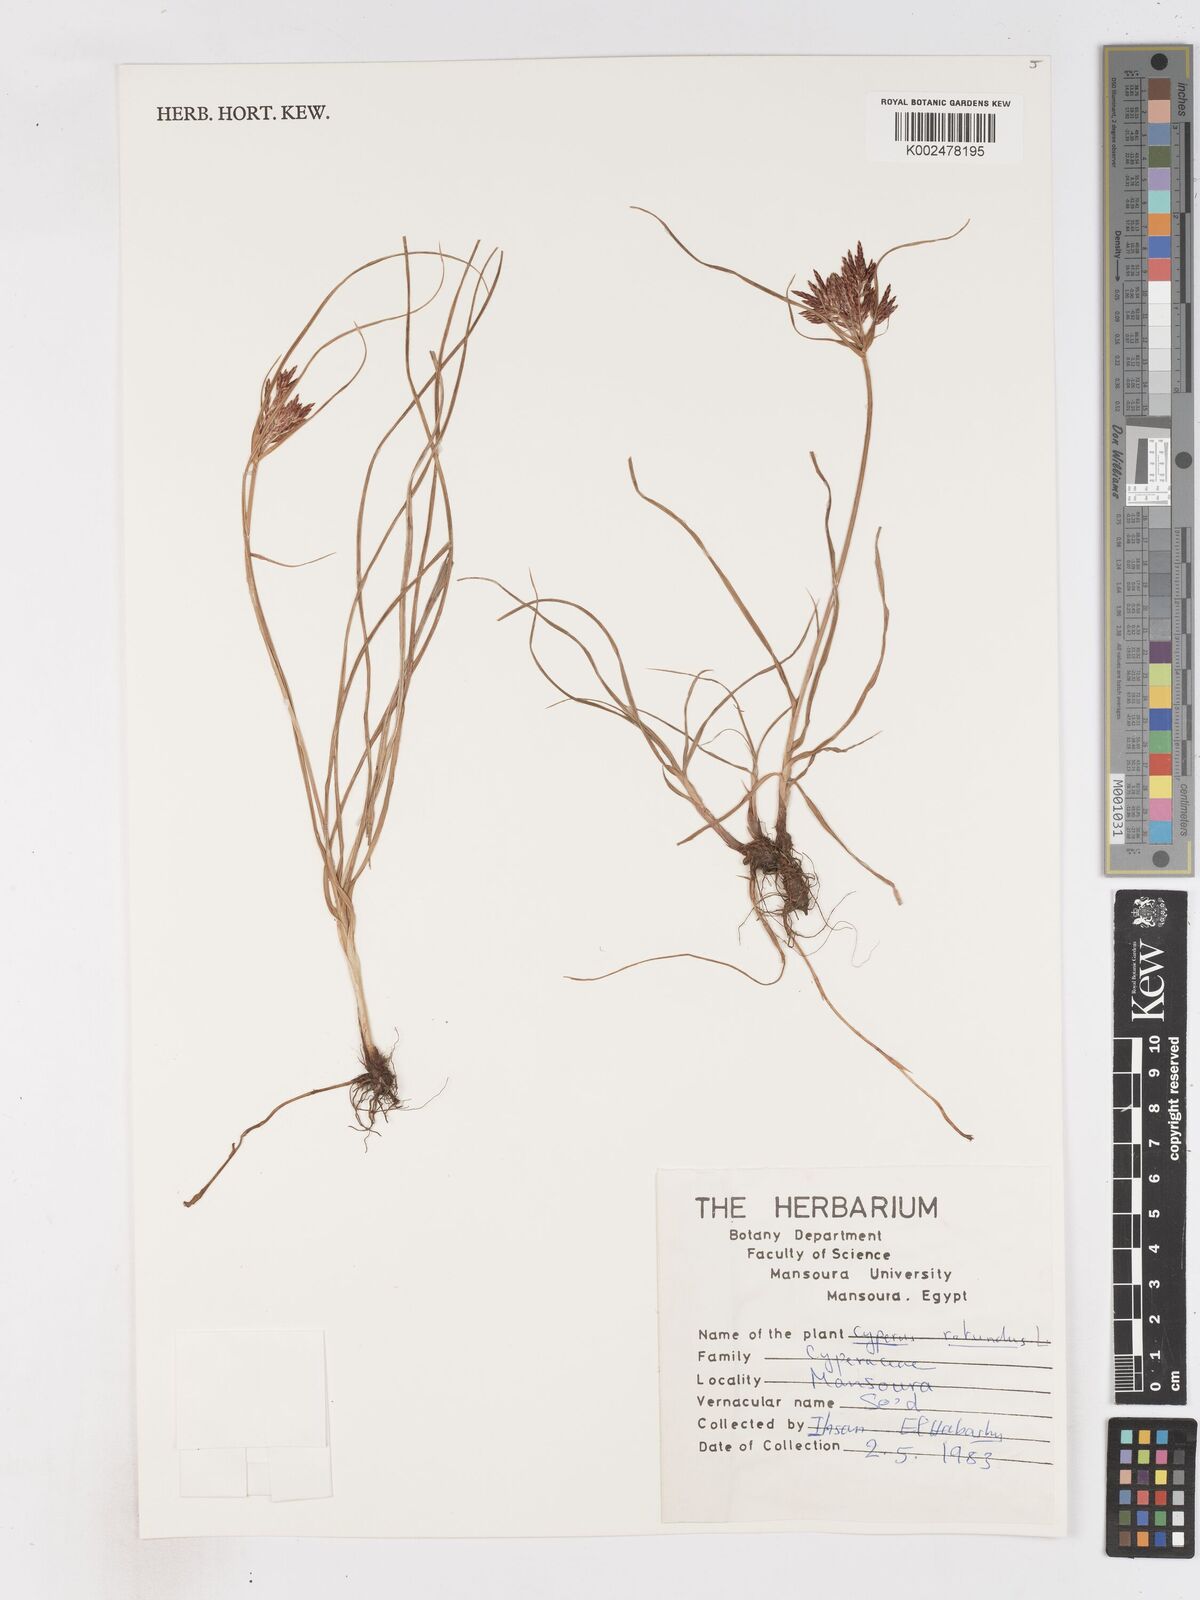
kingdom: Plantae
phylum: Tracheophyta
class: Liliopsida
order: Poales
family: Cyperaceae
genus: Cyperus
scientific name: Cyperus rotundus
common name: Nutgrass
